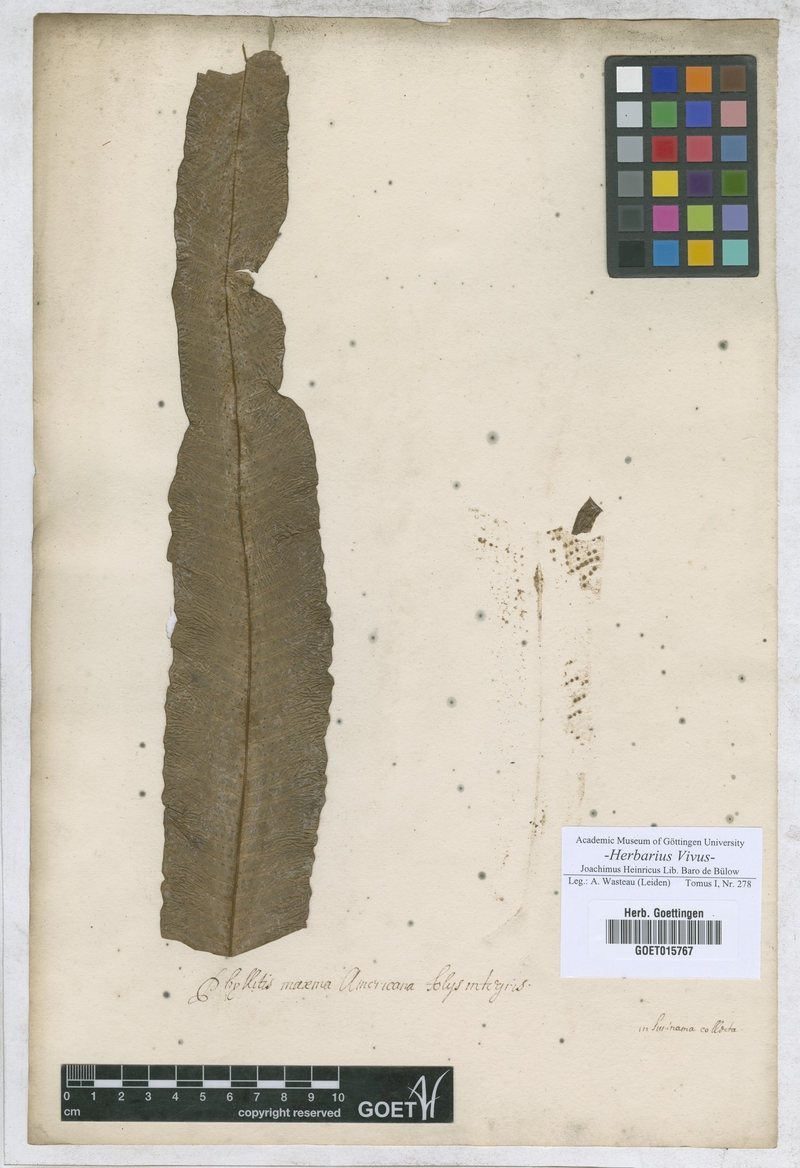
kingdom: Plantae
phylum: Tracheophyta
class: Polypodiopsida
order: Polypodiales
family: Aspleniaceae
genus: Phyllitis
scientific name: Phyllitis
